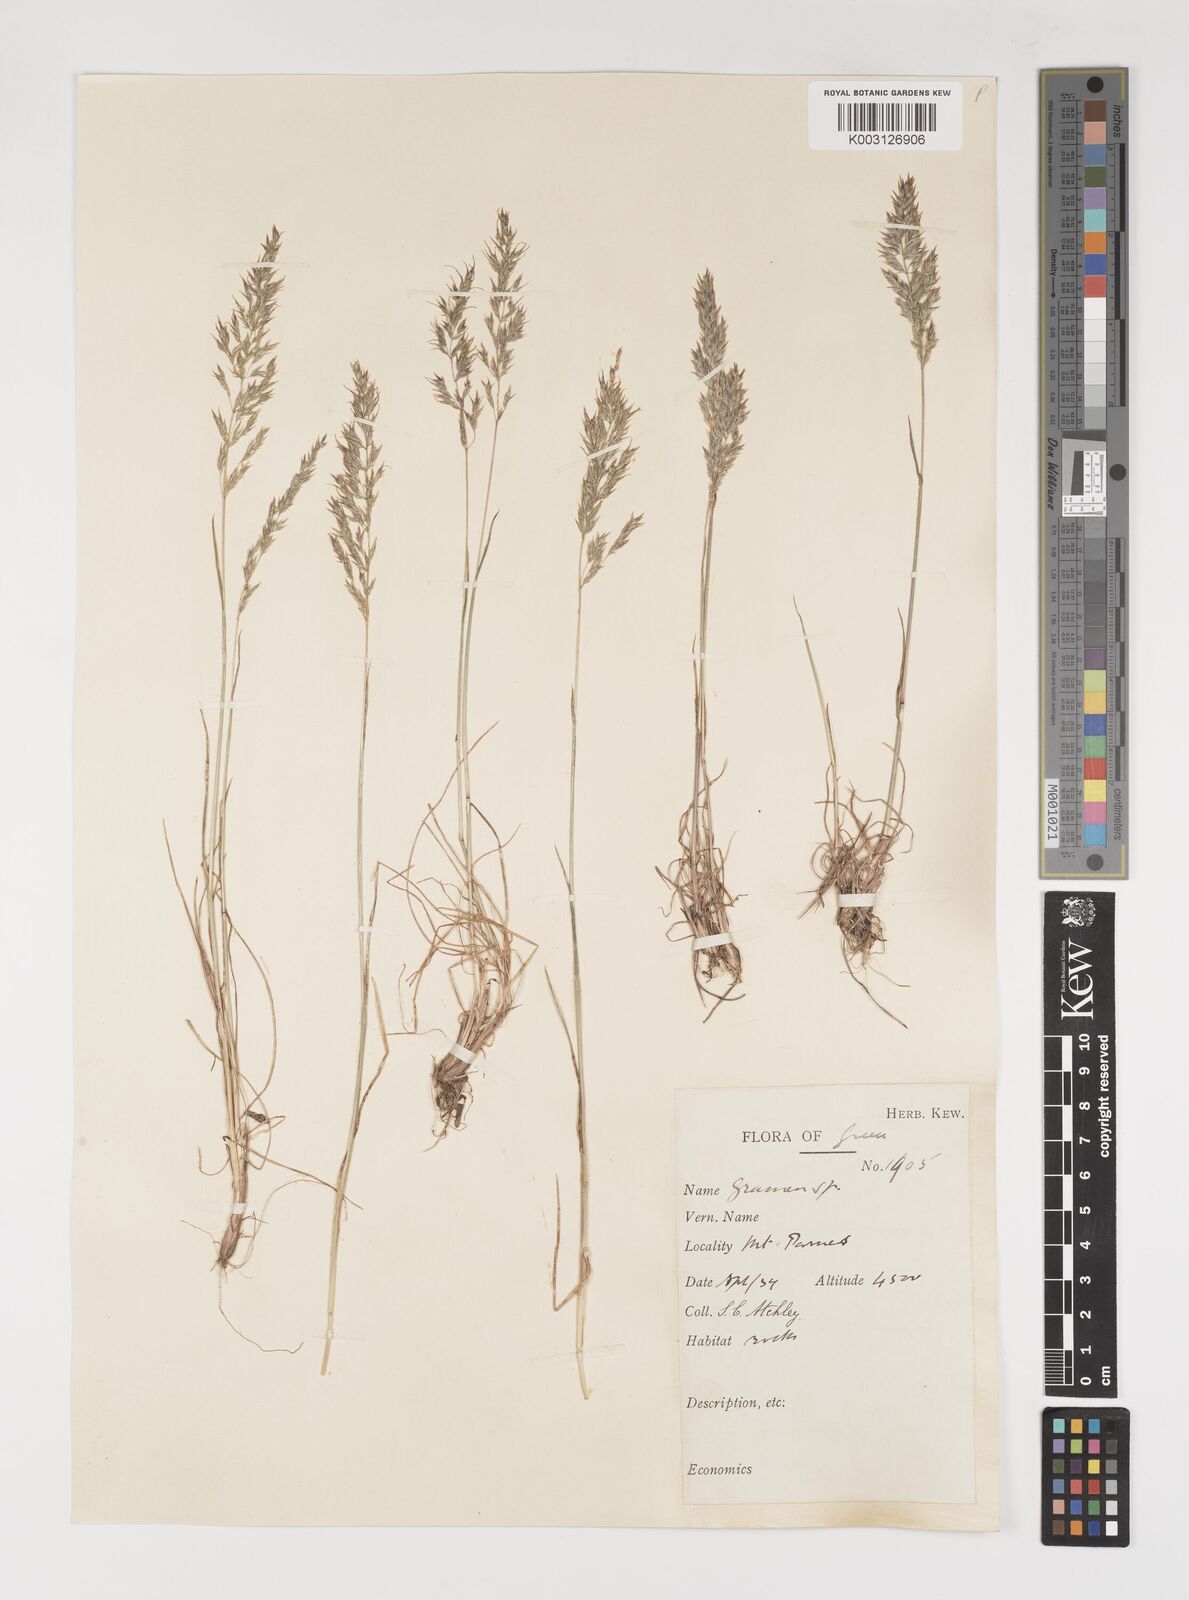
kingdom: Plantae
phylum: Tracheophyta
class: Liliopsida
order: Poales
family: Poaceae
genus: Poa
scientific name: Poa bulbosa
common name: Bulbous bluegrass
